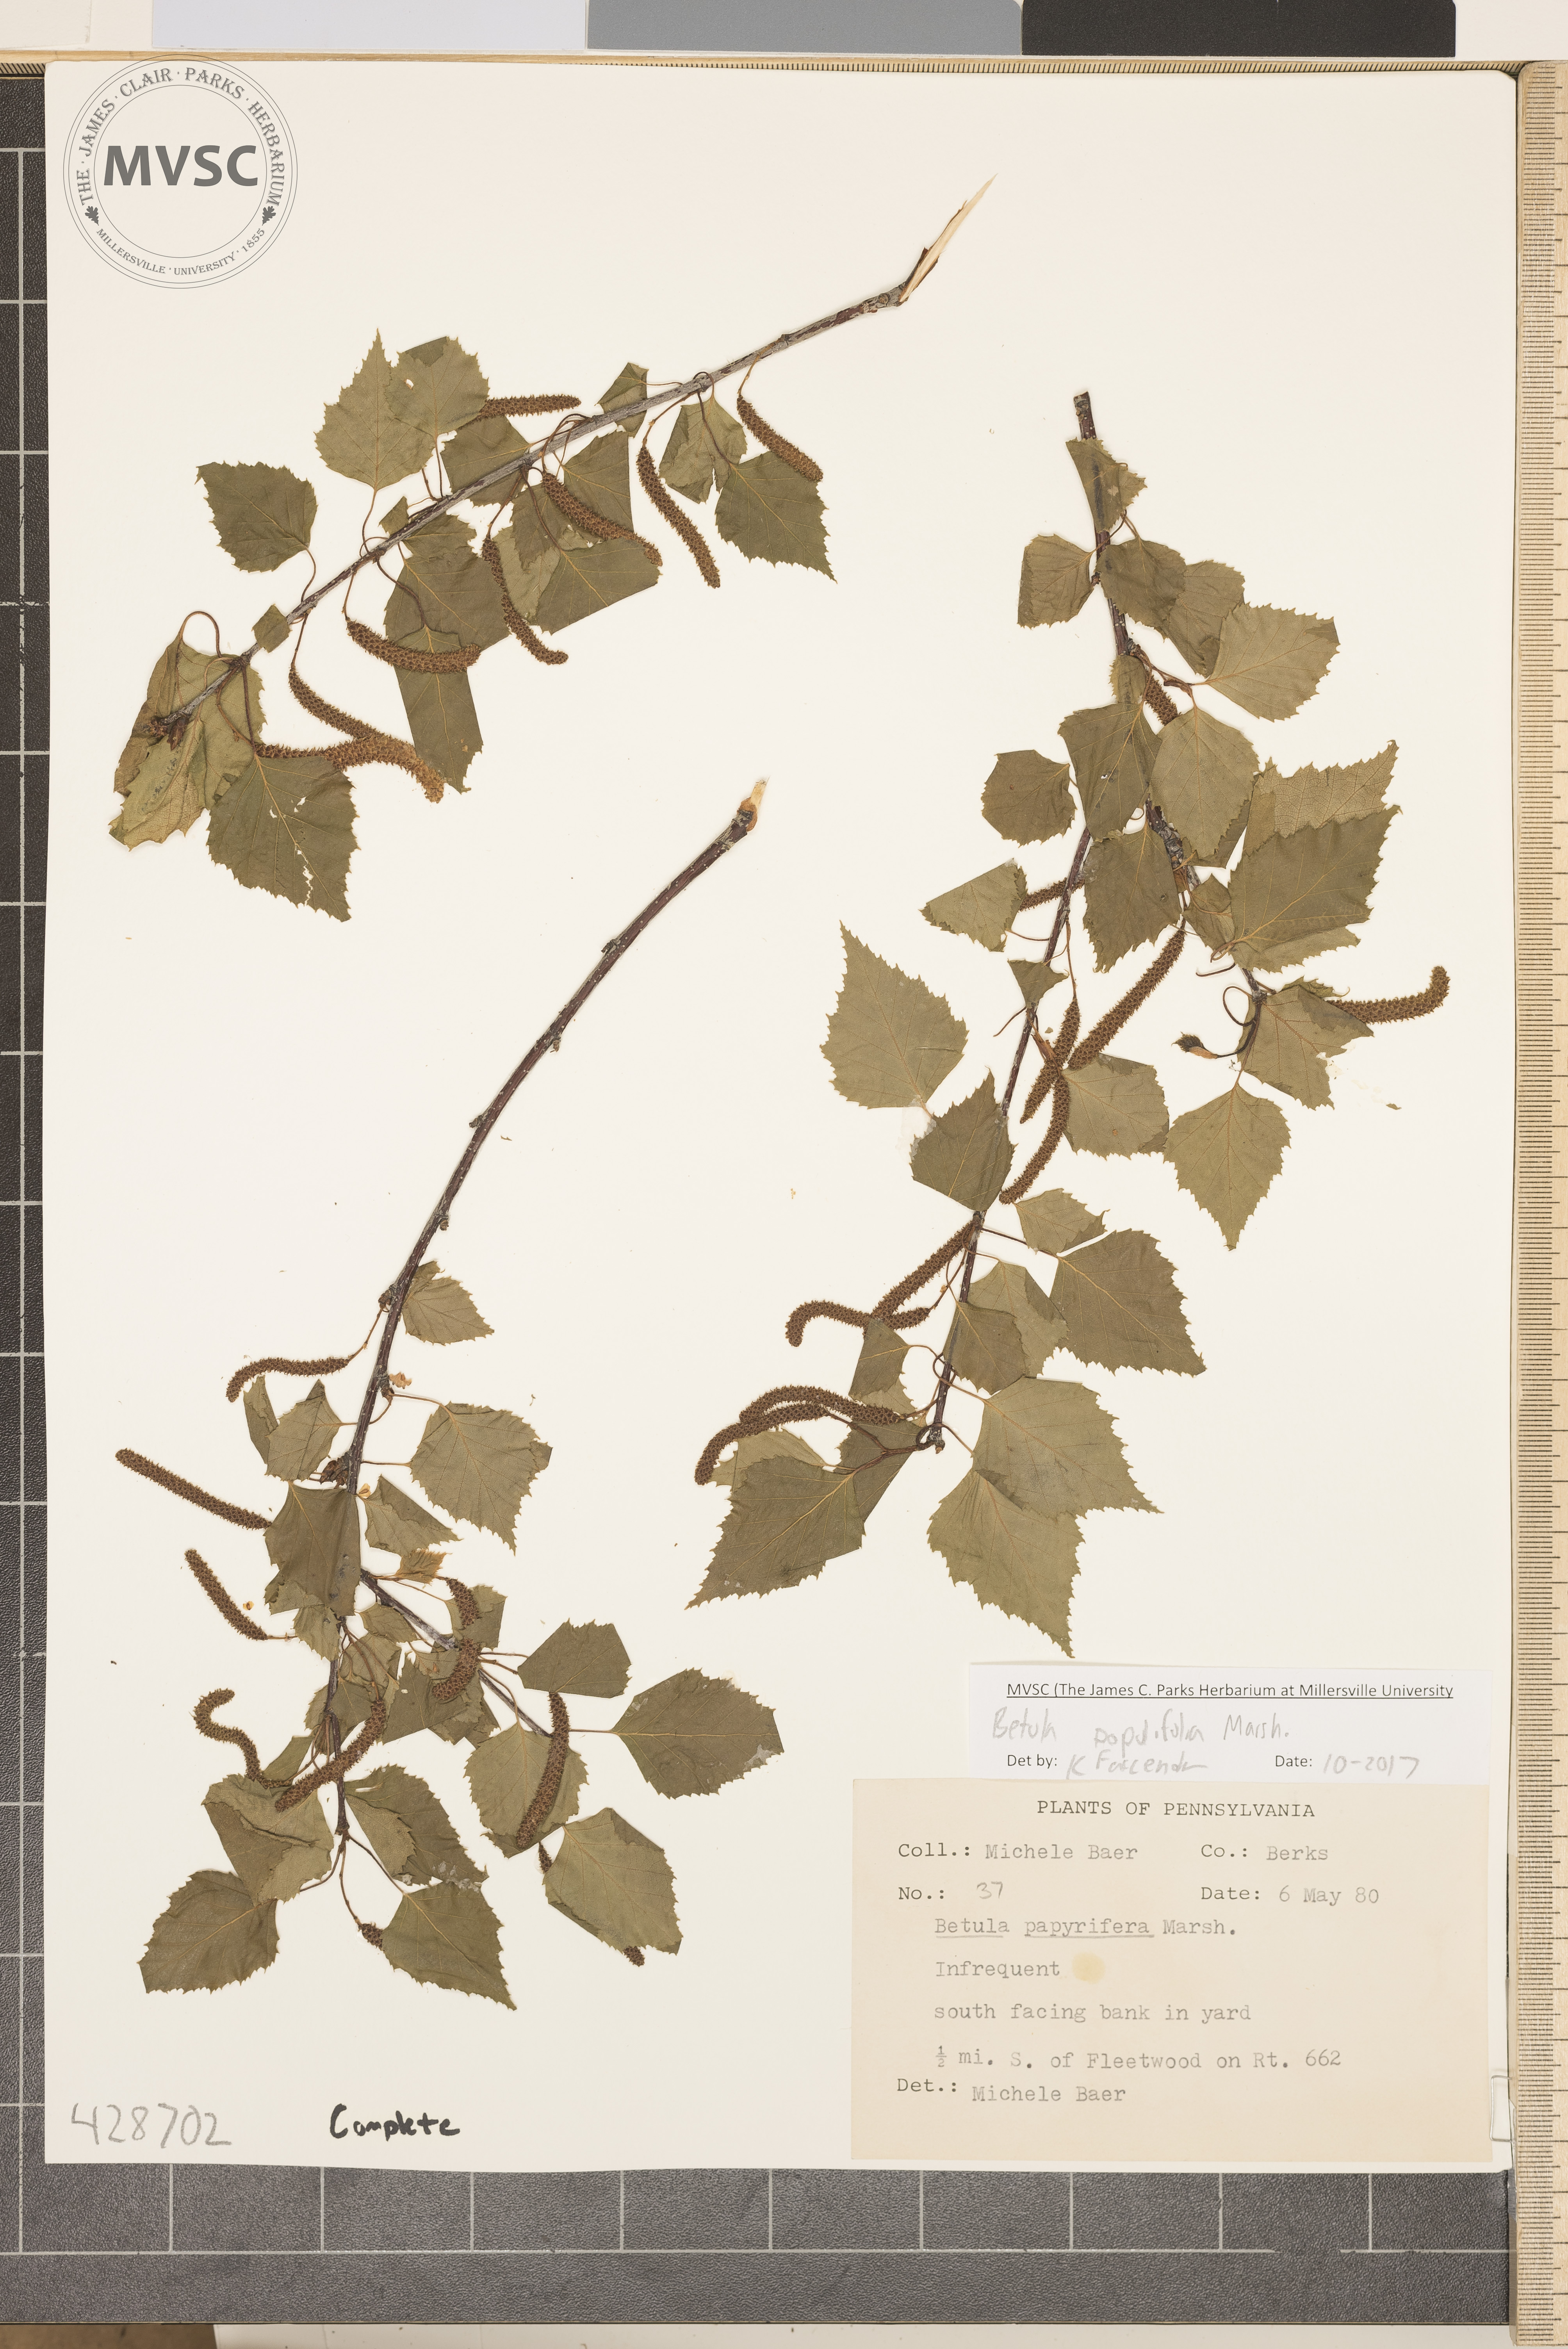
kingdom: Plantae
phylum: Tracheophyta
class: Magnoliopsida
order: Fagales
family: Betulaceae
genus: Betula
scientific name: Betula populifolia
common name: Gray birch
